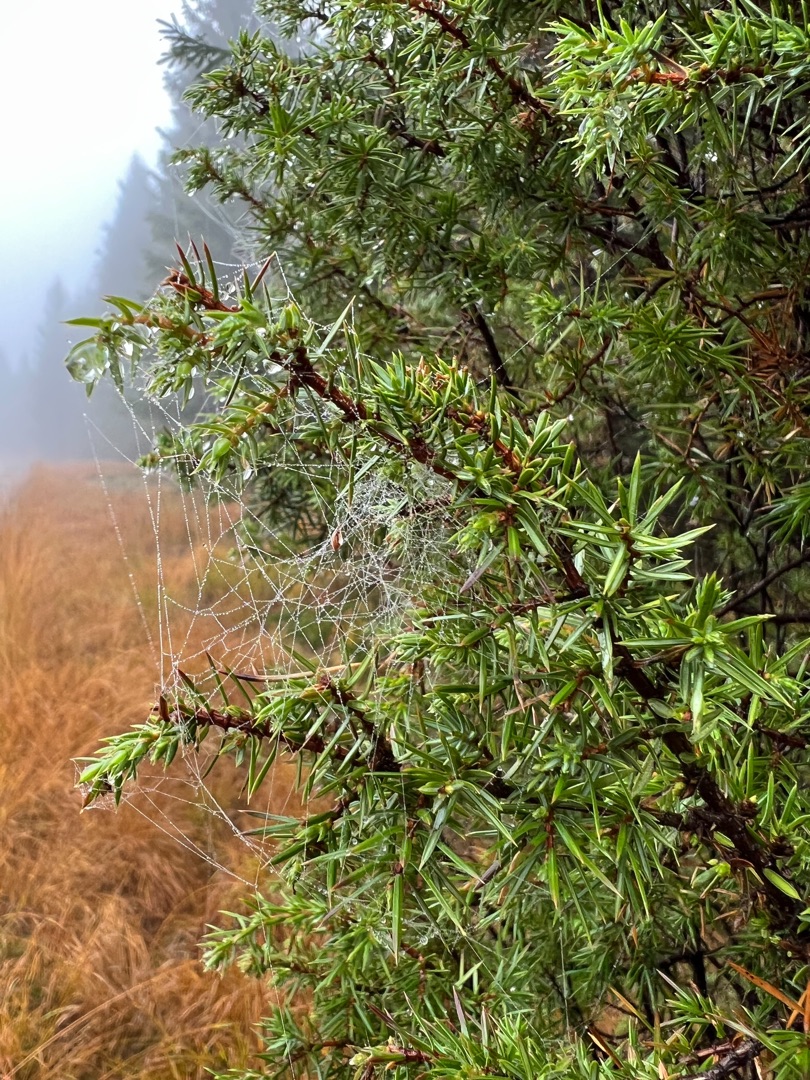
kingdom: Plantae
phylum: Tracheophyta
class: Pinopsida
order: Pinales
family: Cupressaceae
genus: Juniperus
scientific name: Juniperus communis
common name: Almindelig ene
